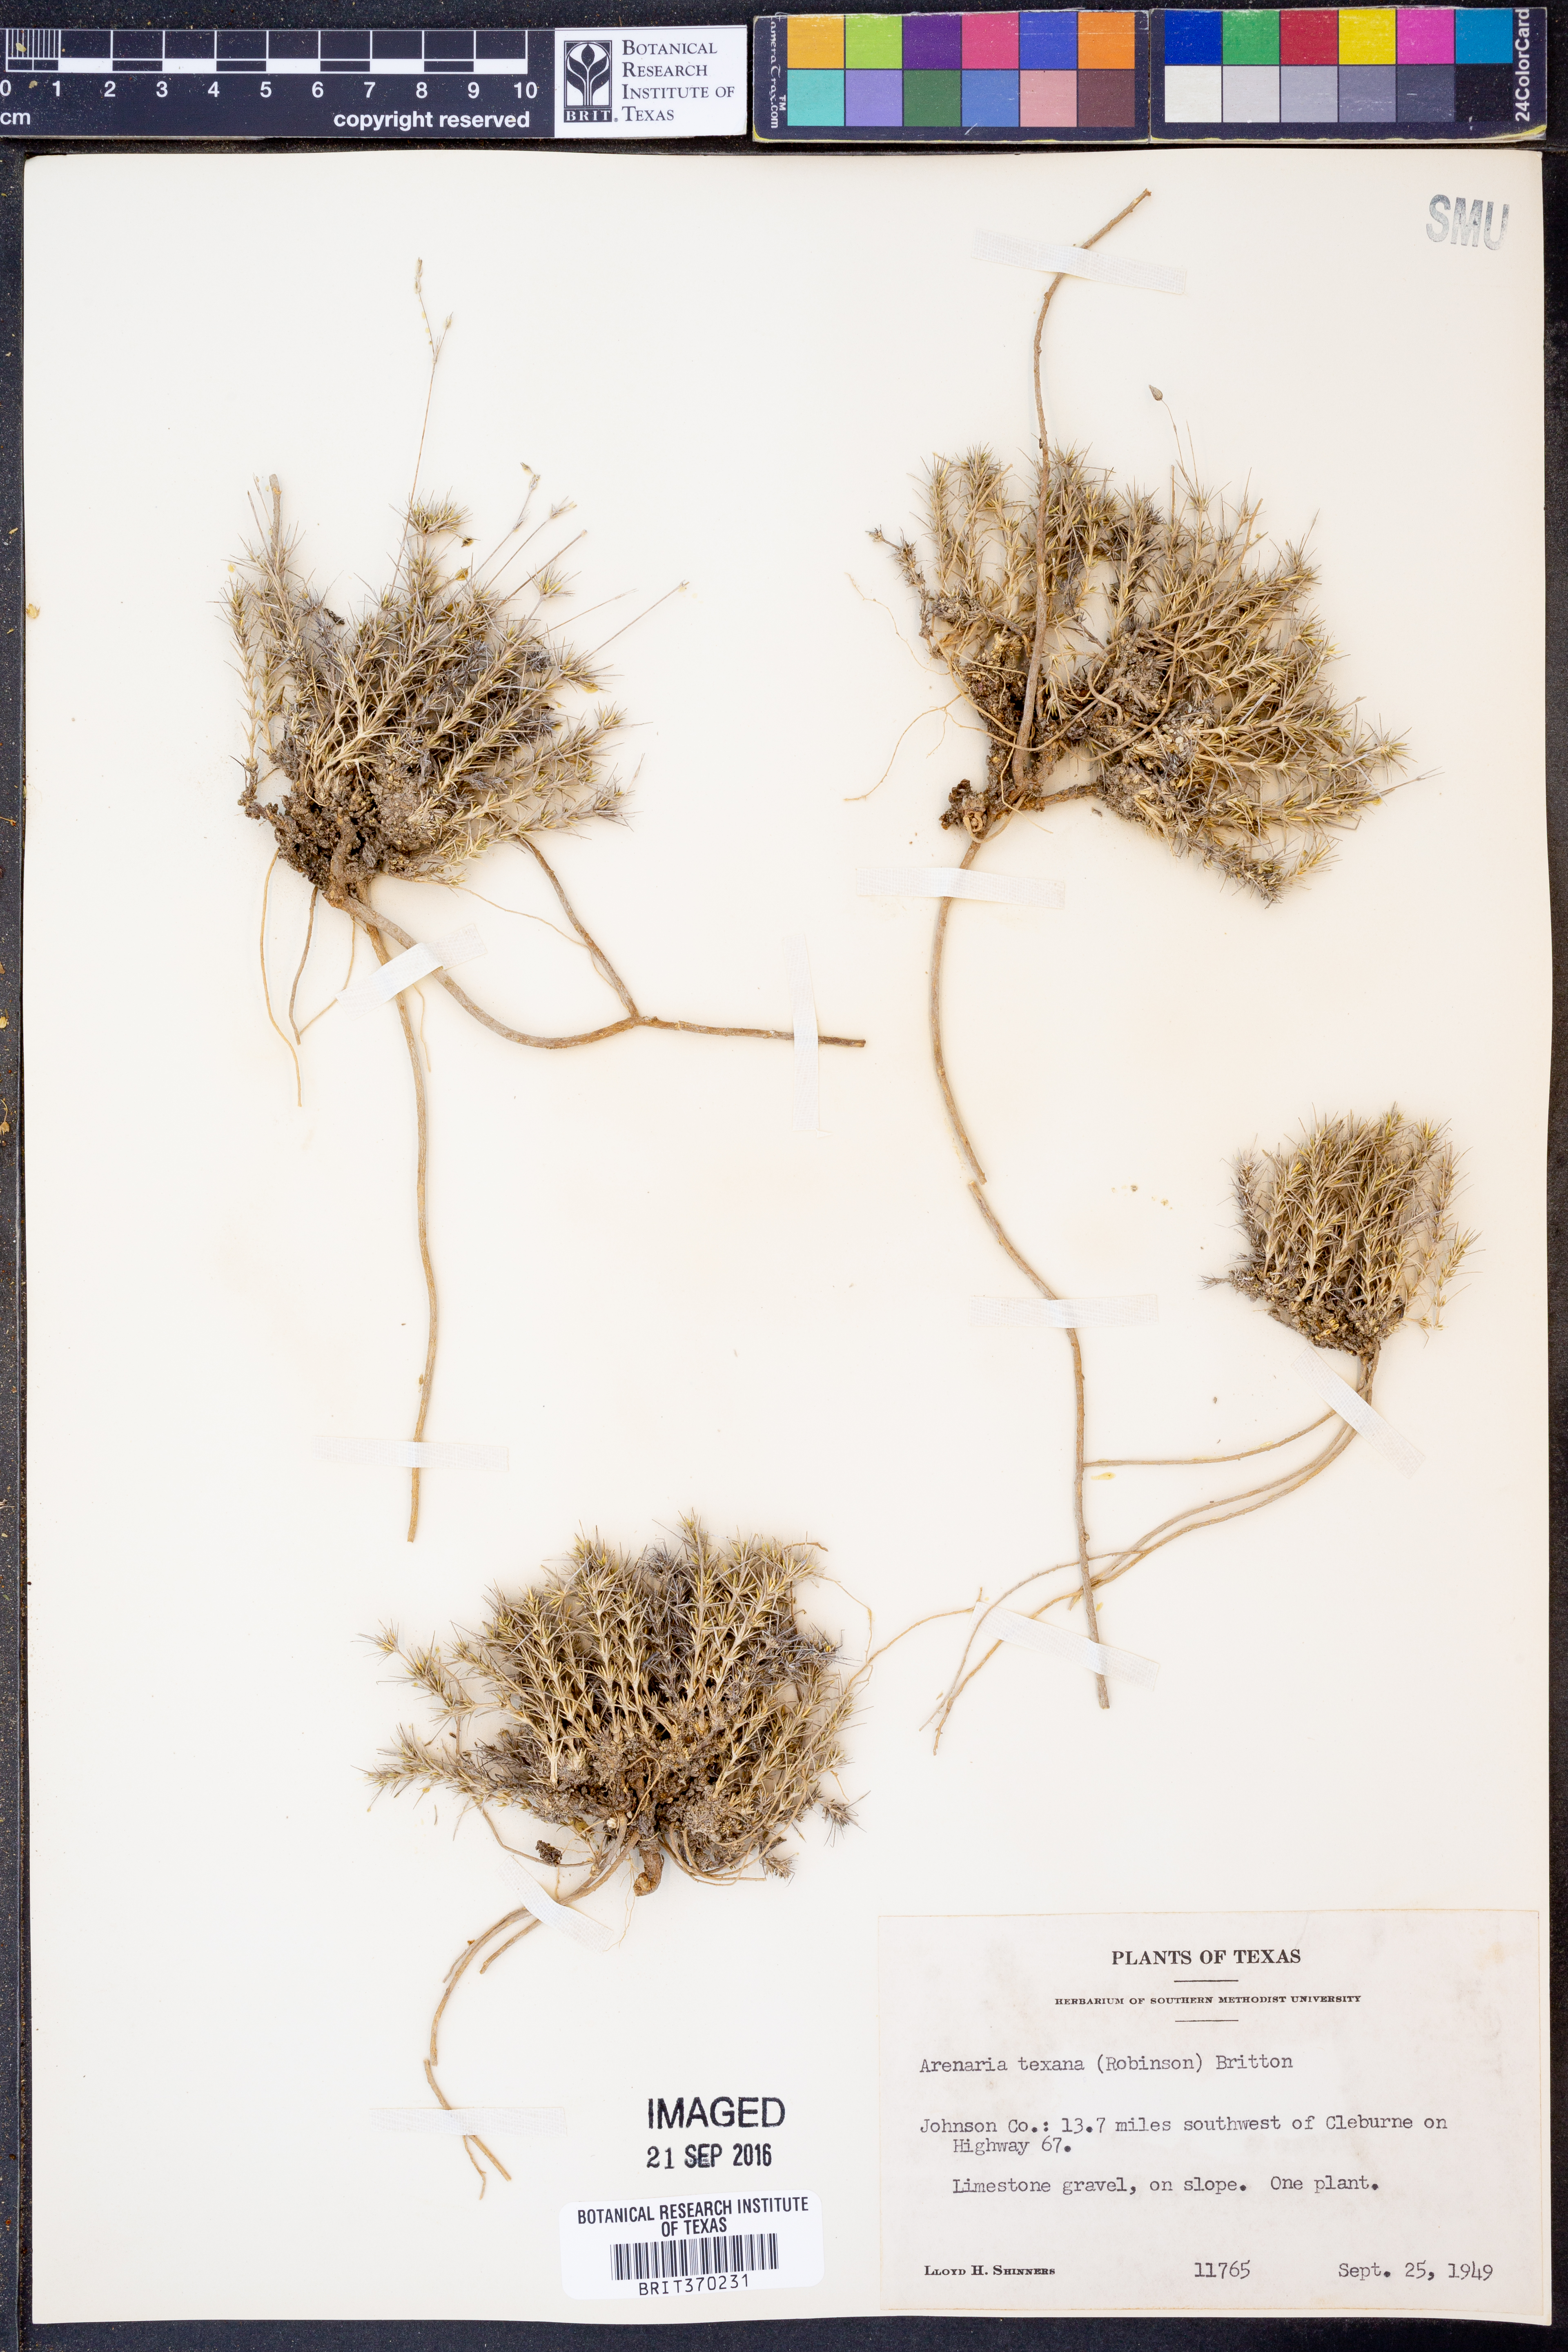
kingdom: Plantae
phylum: Tracheophyta
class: Magnoliopsida
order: Caryophyllales
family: Caryophyllaceae
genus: Sabulina
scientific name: Sabulina texana
